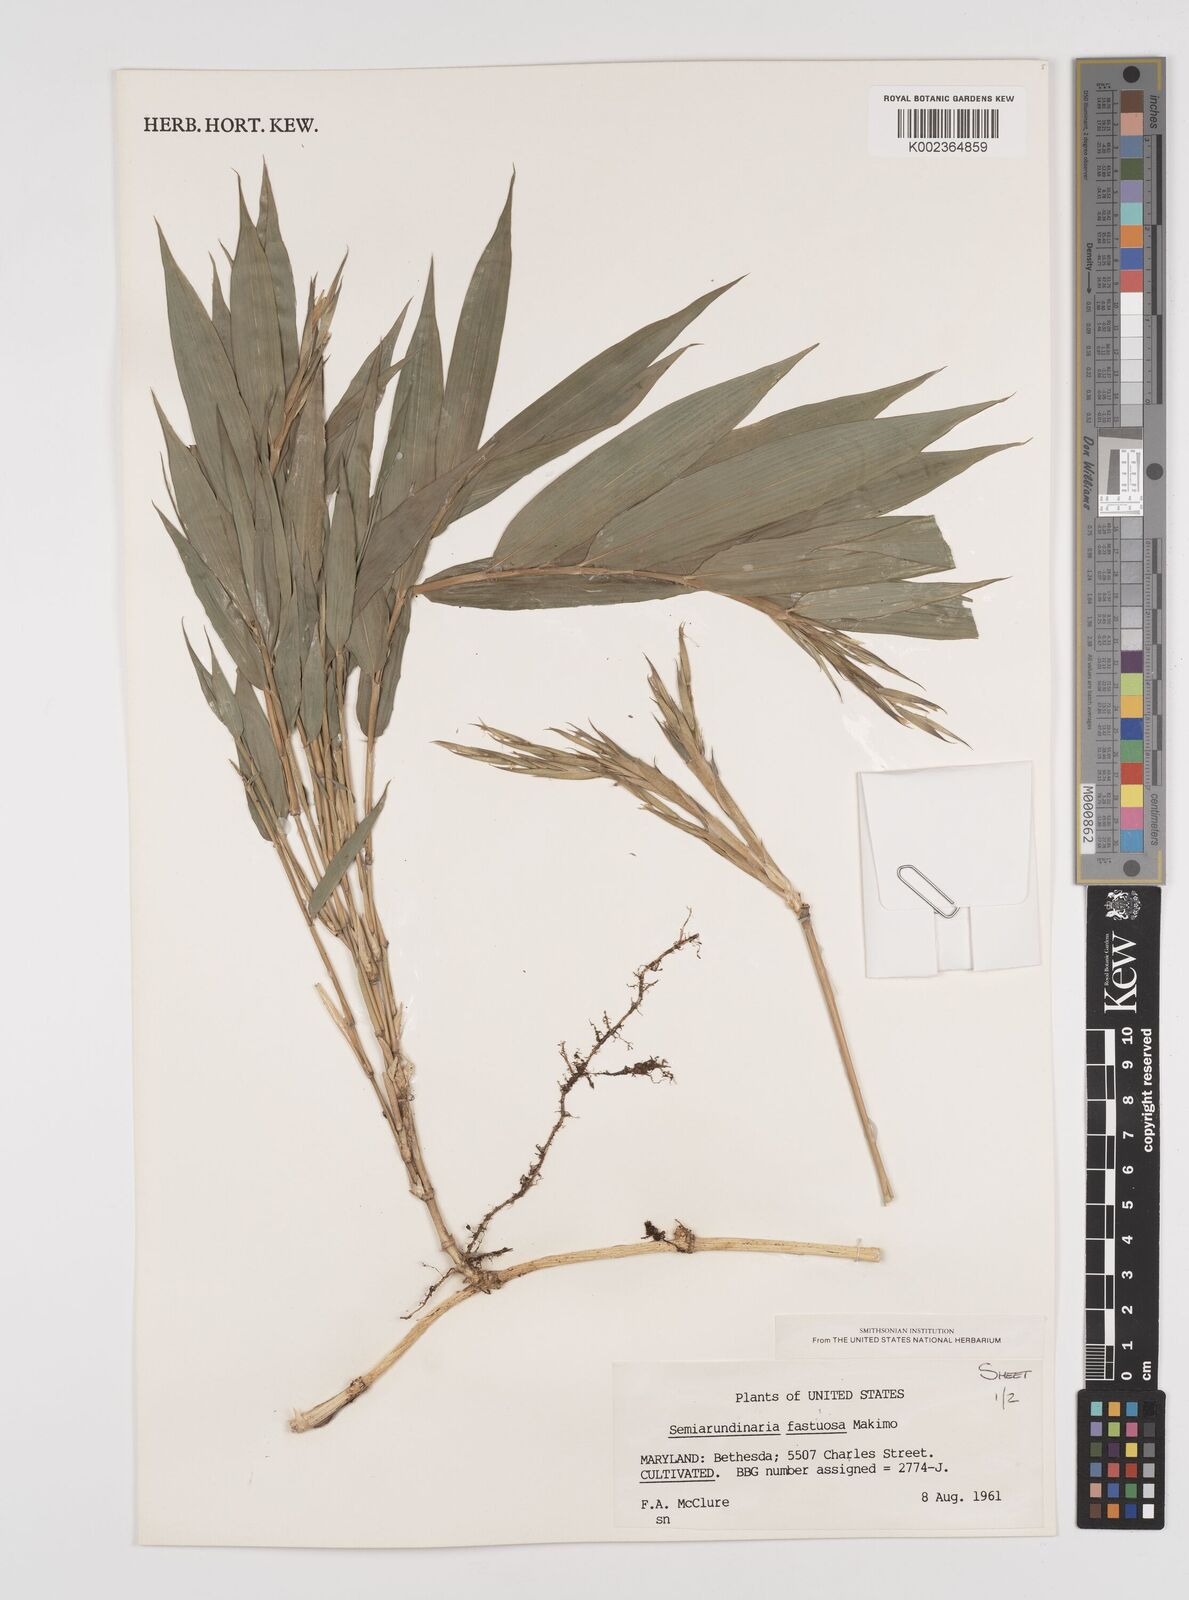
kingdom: Plantae
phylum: Tracheophyta
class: Liliopsida
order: Poales
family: Poaceae
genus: Semiarundinaria
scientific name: Semiarundinaria fastuosa
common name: Narihira bamboo
